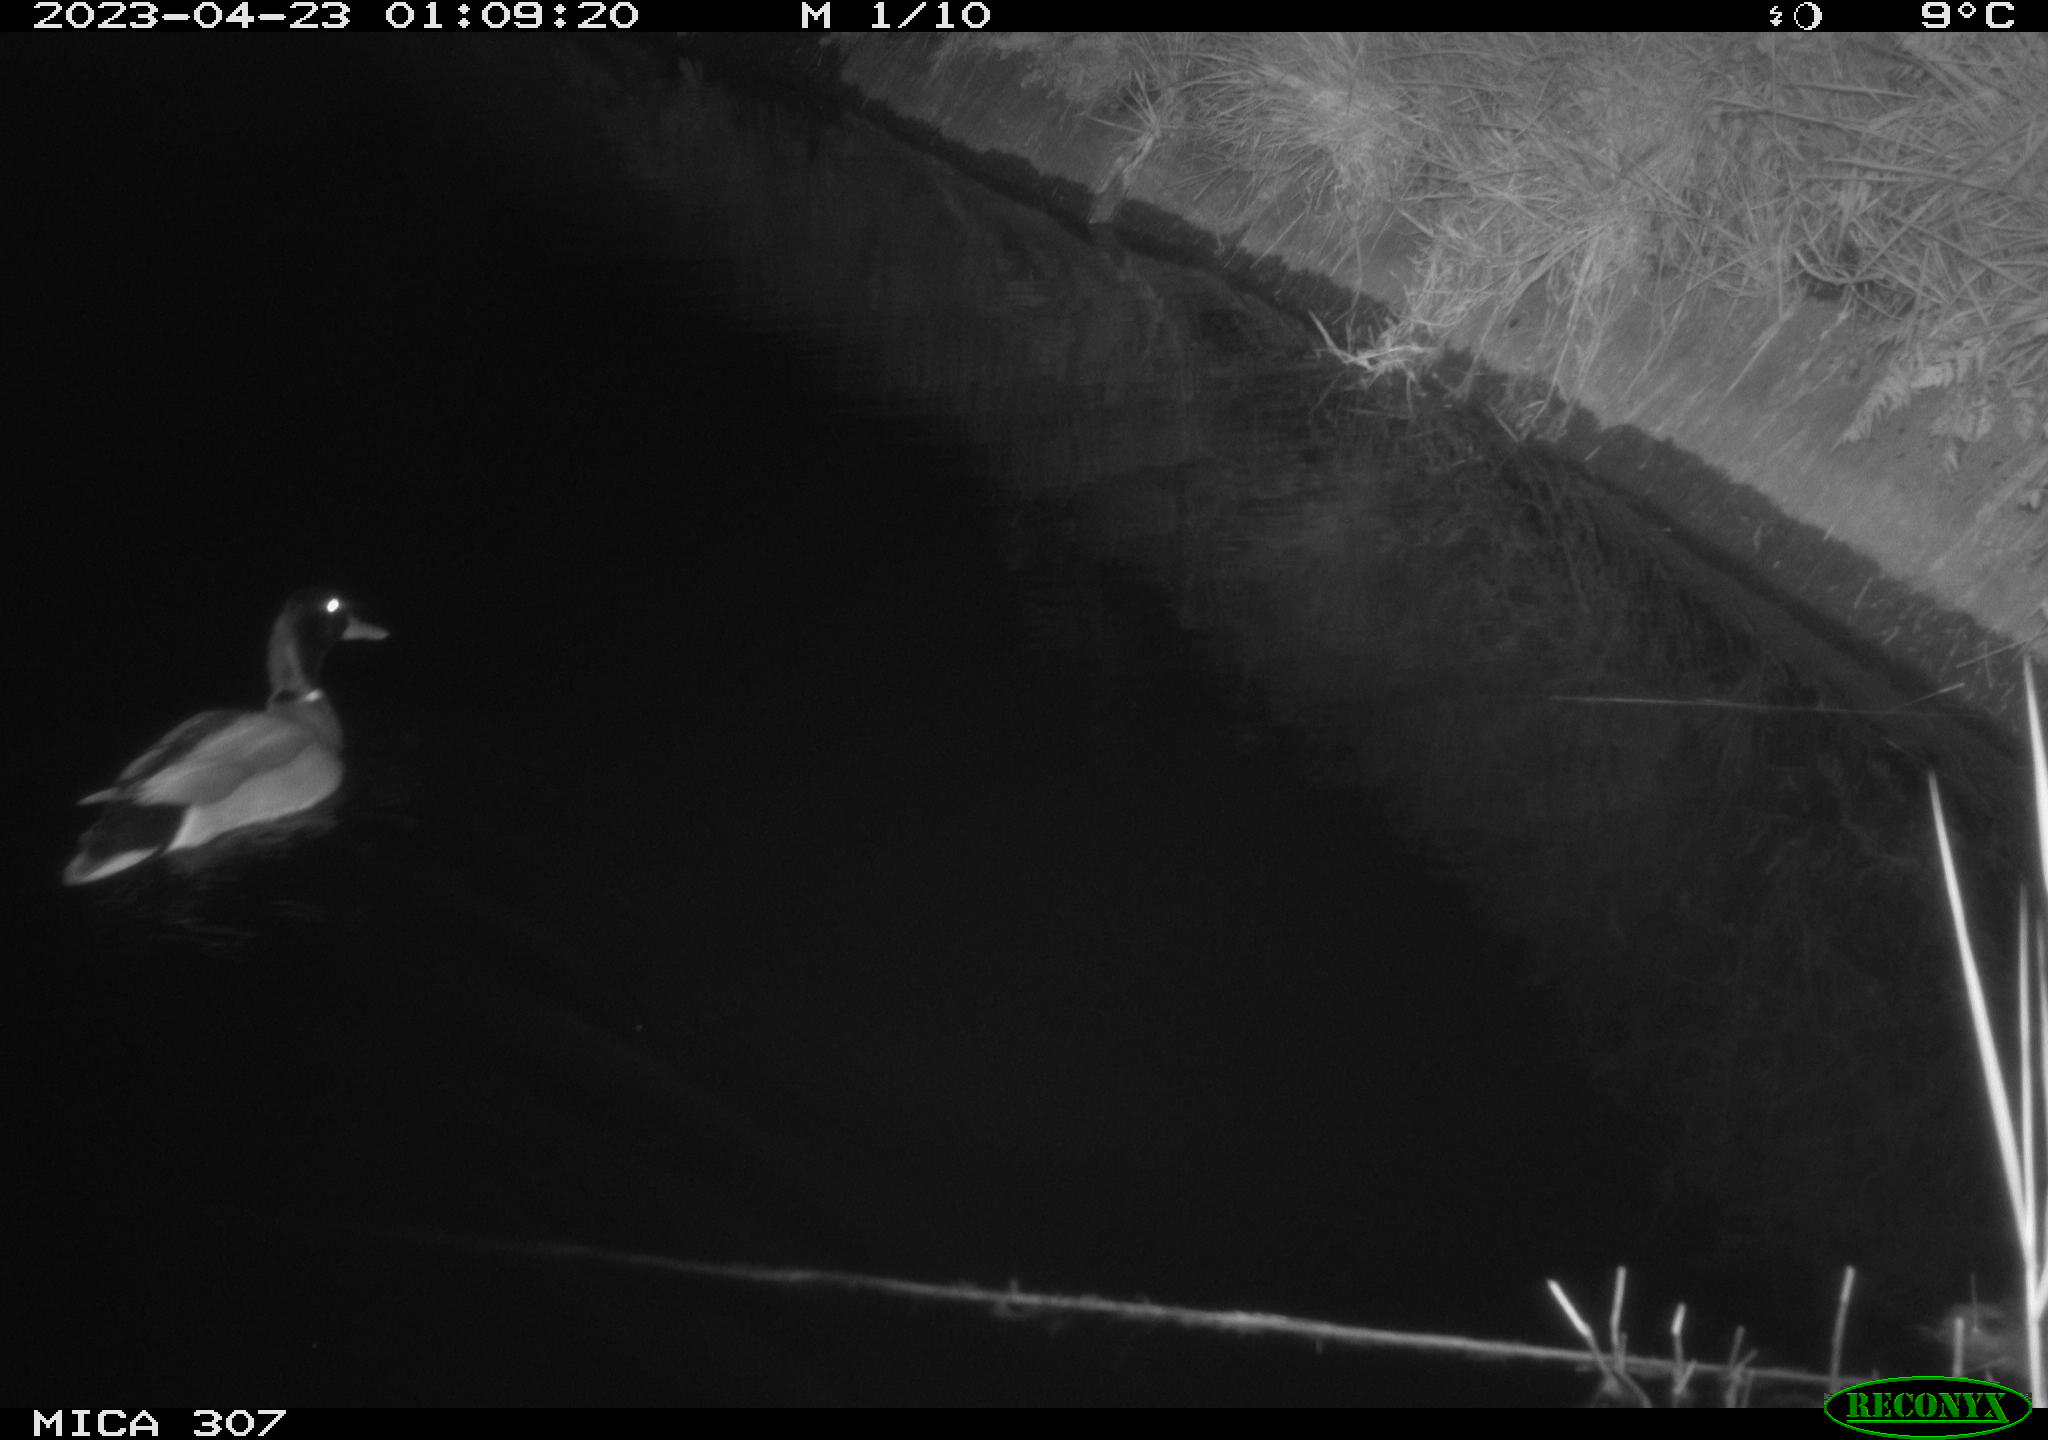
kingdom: Animalia
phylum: Chordata
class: Aves
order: Anseriformes
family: Anatidae
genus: Anas
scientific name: Anas
